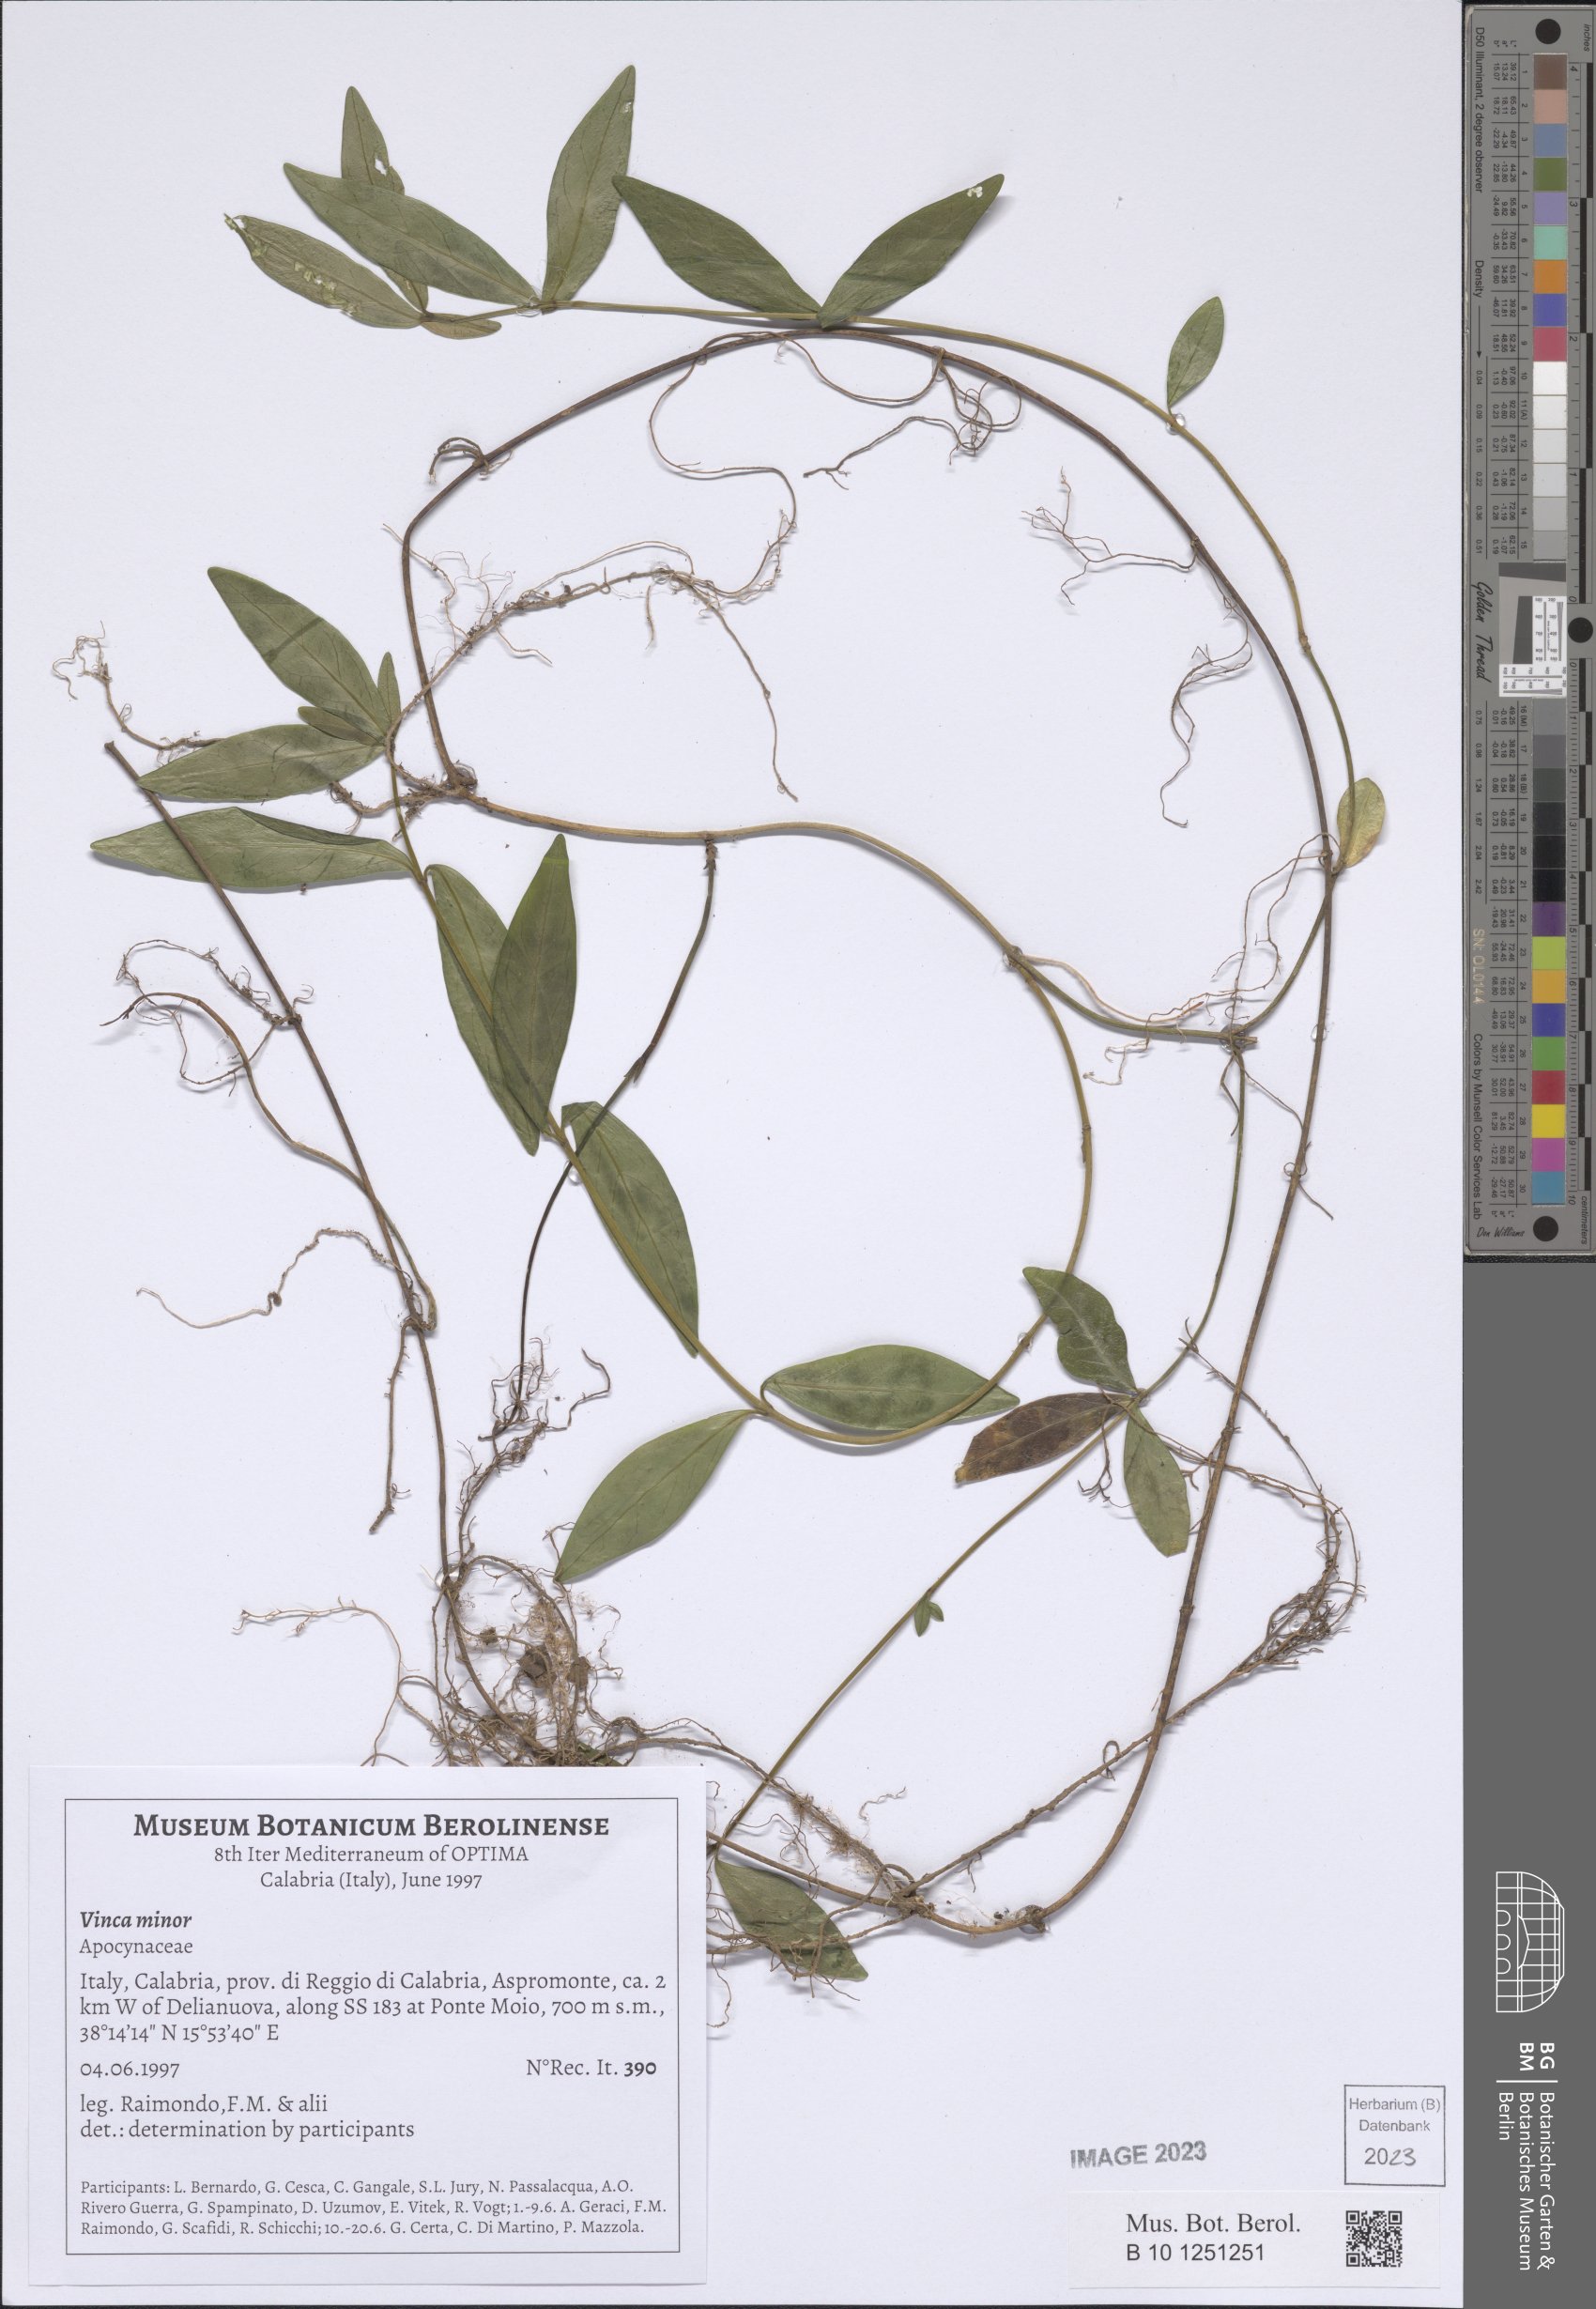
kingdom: Plantae
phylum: Tracheophyta
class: Magnoliopsida
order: Gentianales
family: Apocynaceae
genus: Vinca
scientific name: Vinca minor
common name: Lesser periwinkle
